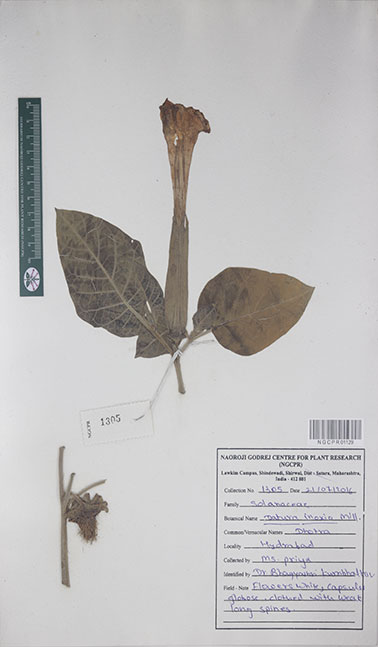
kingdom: Plantae
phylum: Tracheophyta
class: Magnoliopsida
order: Solanales
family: Solanaceae
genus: Datura
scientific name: Datura innoxia
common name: Downy thorn-apple
